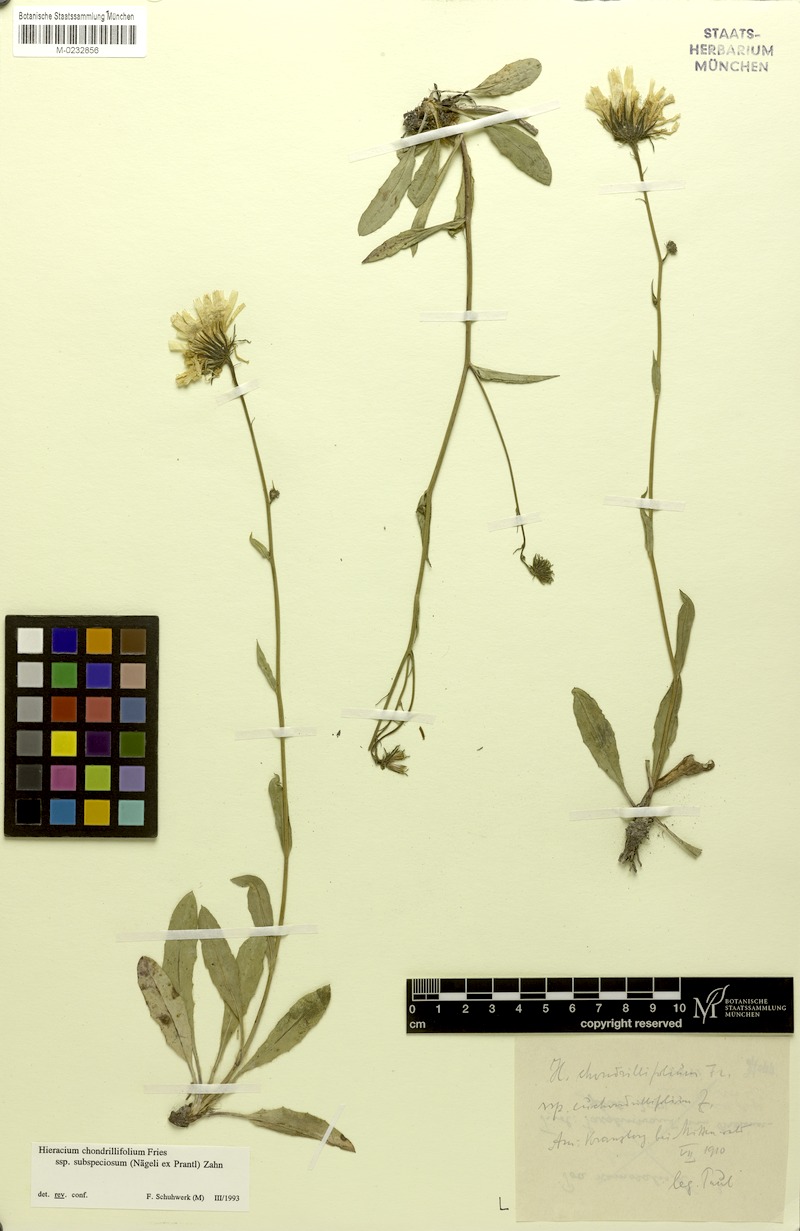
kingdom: Plantae
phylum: Tracheophyta
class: Magnoliopsida
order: Asterales
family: Asteraceae
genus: Hieracium
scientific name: Hieracium subspeciosum
